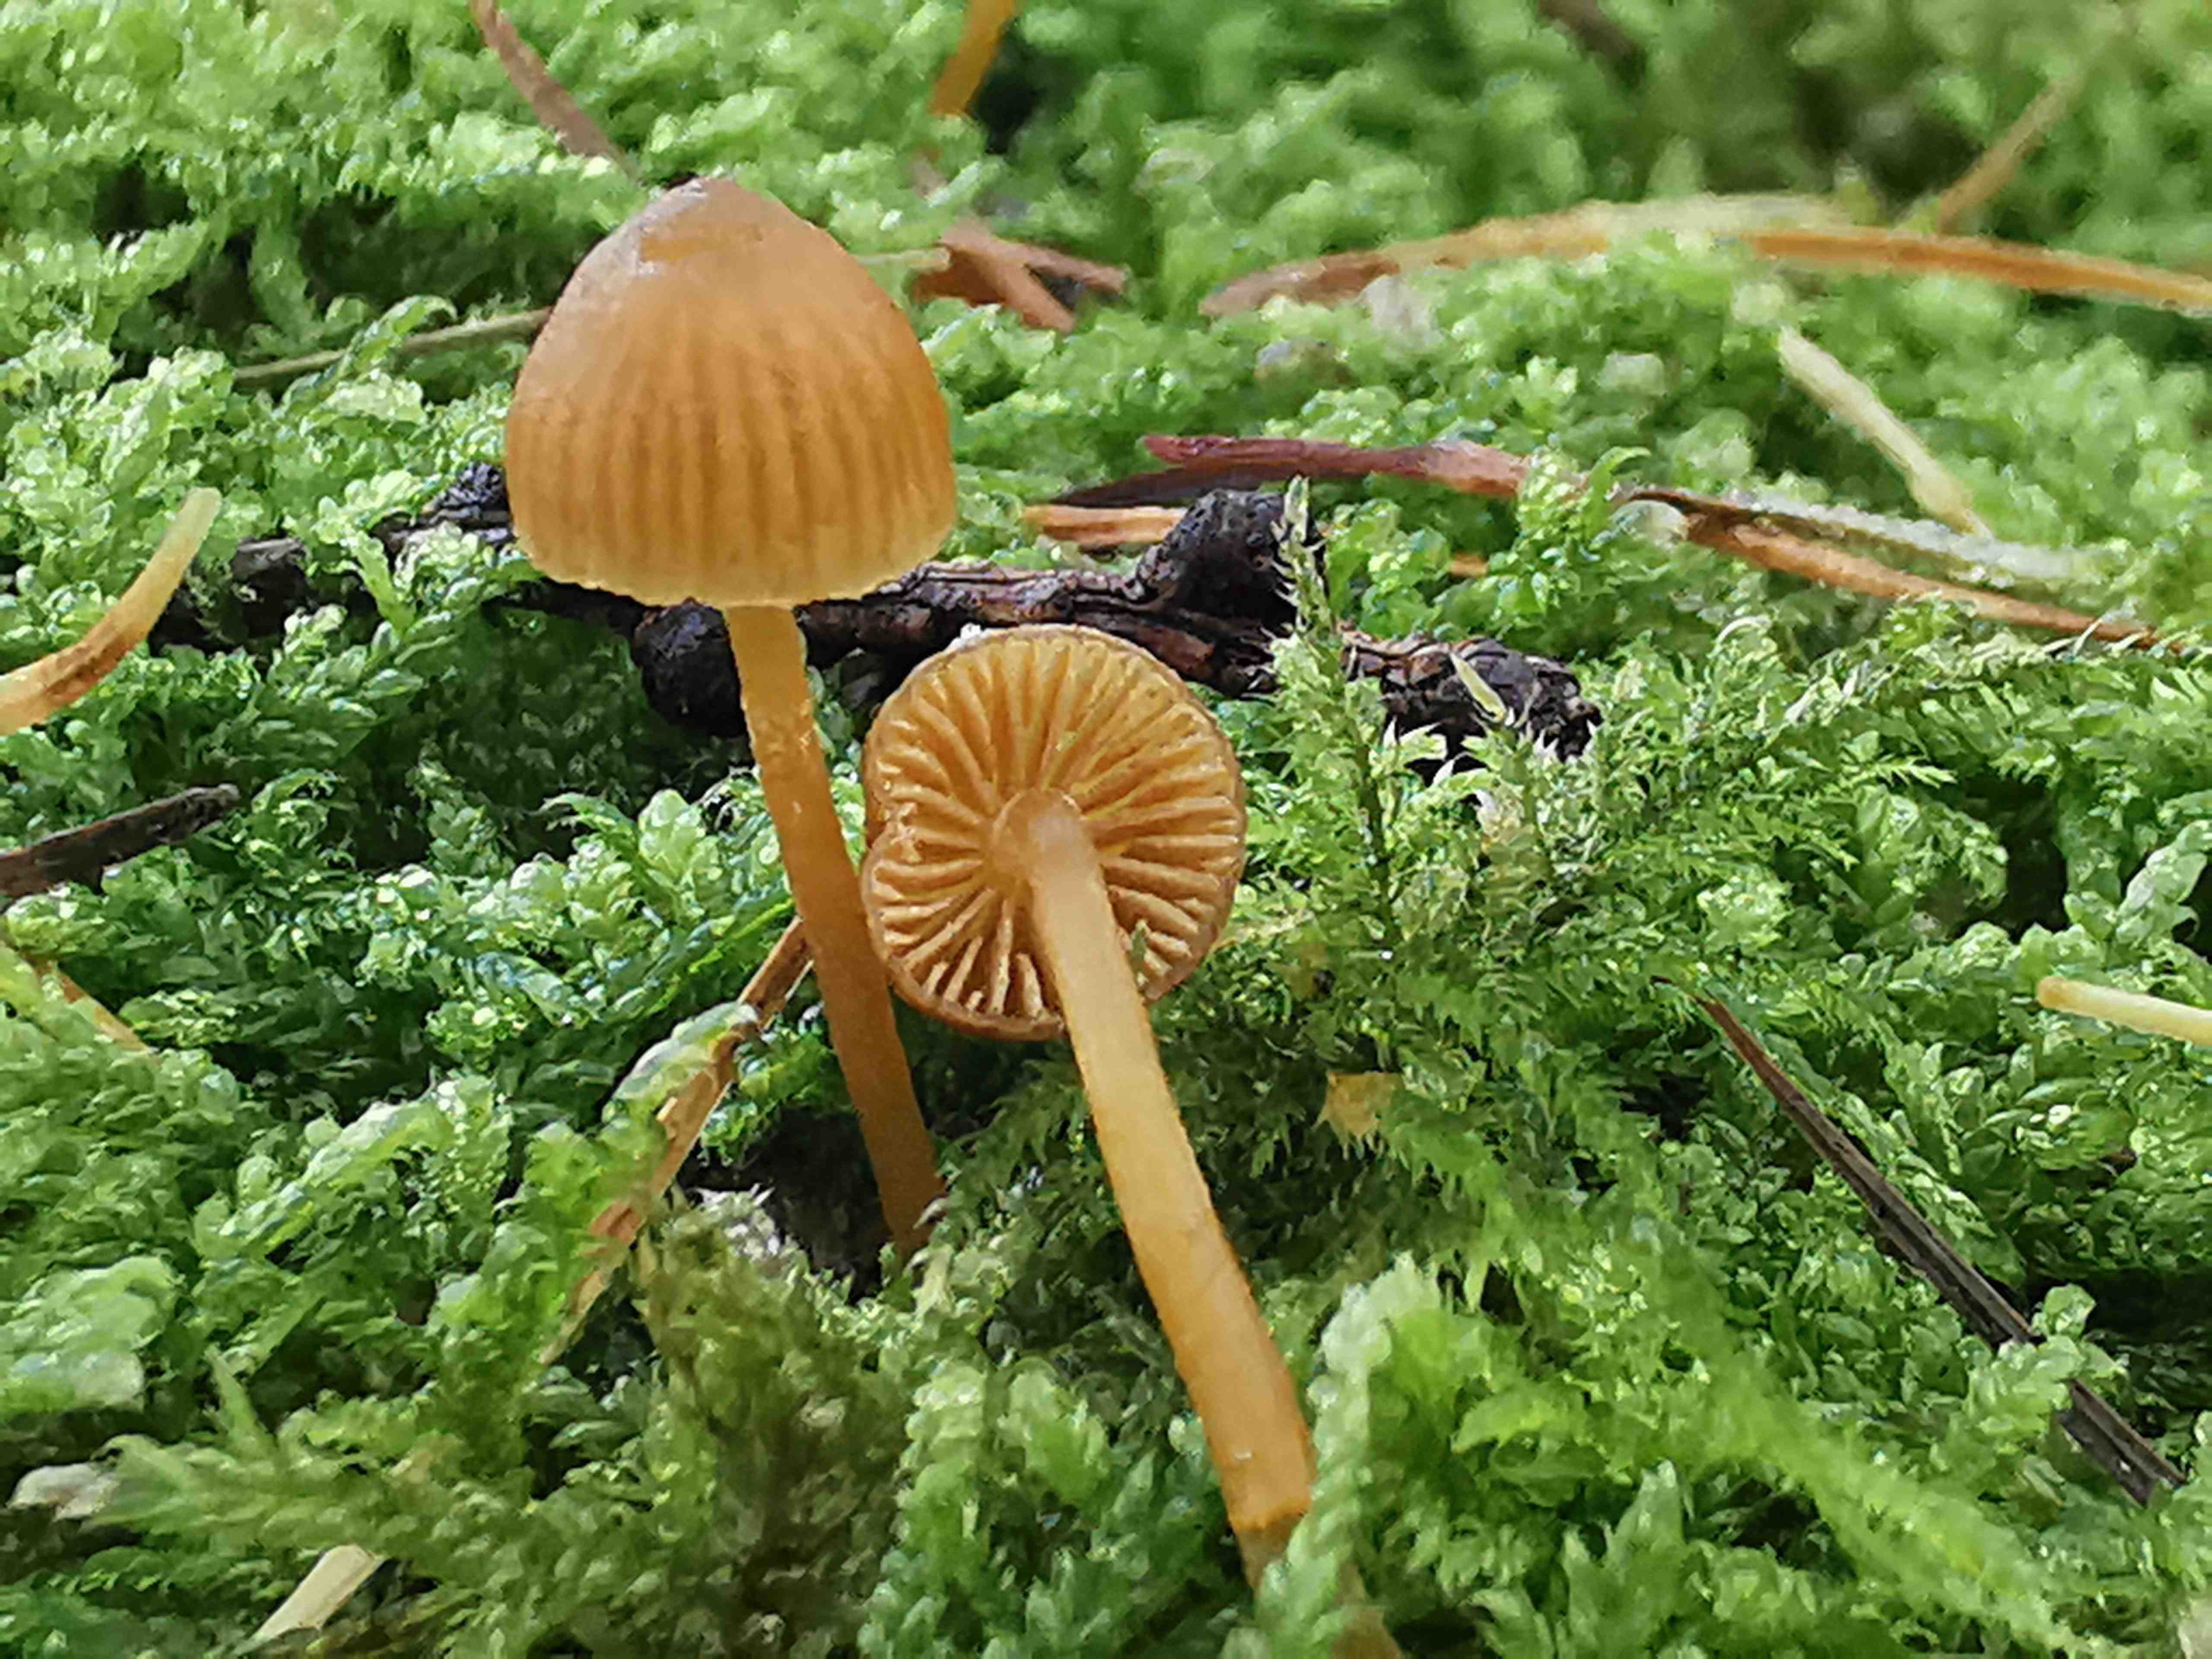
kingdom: Fungi
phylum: Basidiomycota
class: Agaricomycetes
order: Agaricales
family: Hymenogastraceae
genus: Galerina
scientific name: Galerina
